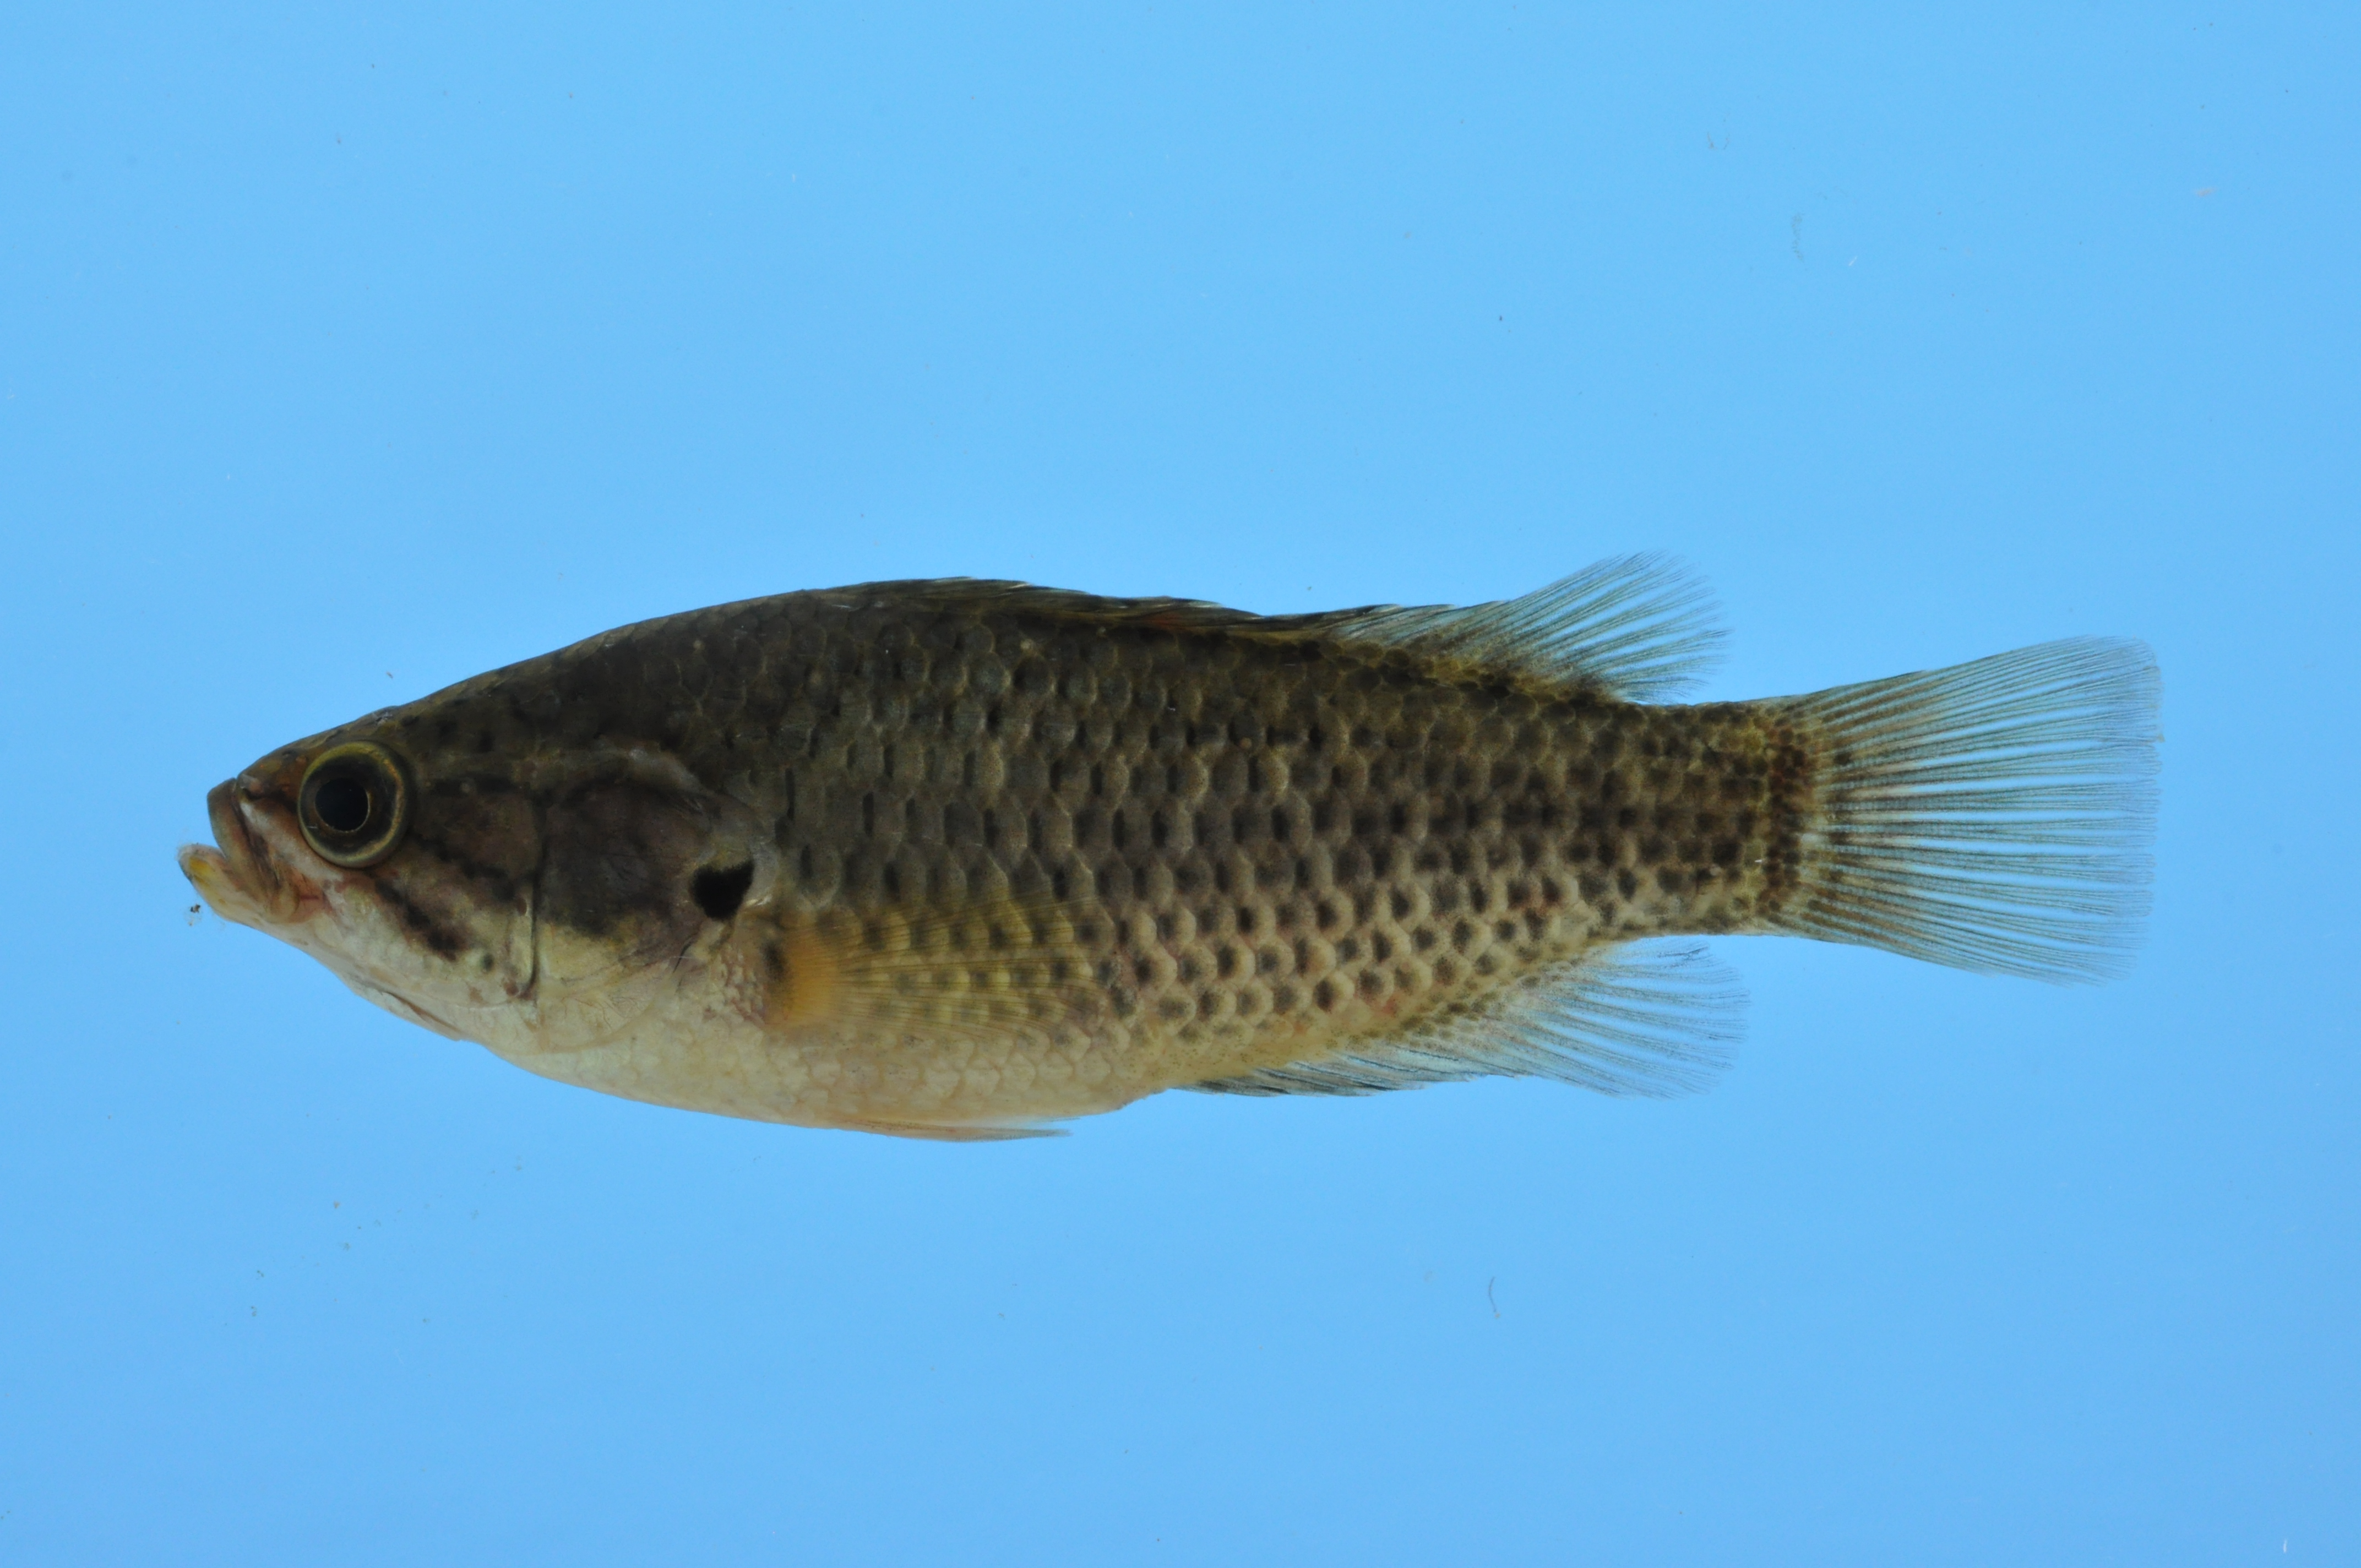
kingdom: Animalia
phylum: Chordata
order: Perciformes
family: Anabantidae
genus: Sandelia
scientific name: Sandelia capensis
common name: Cape kurper
